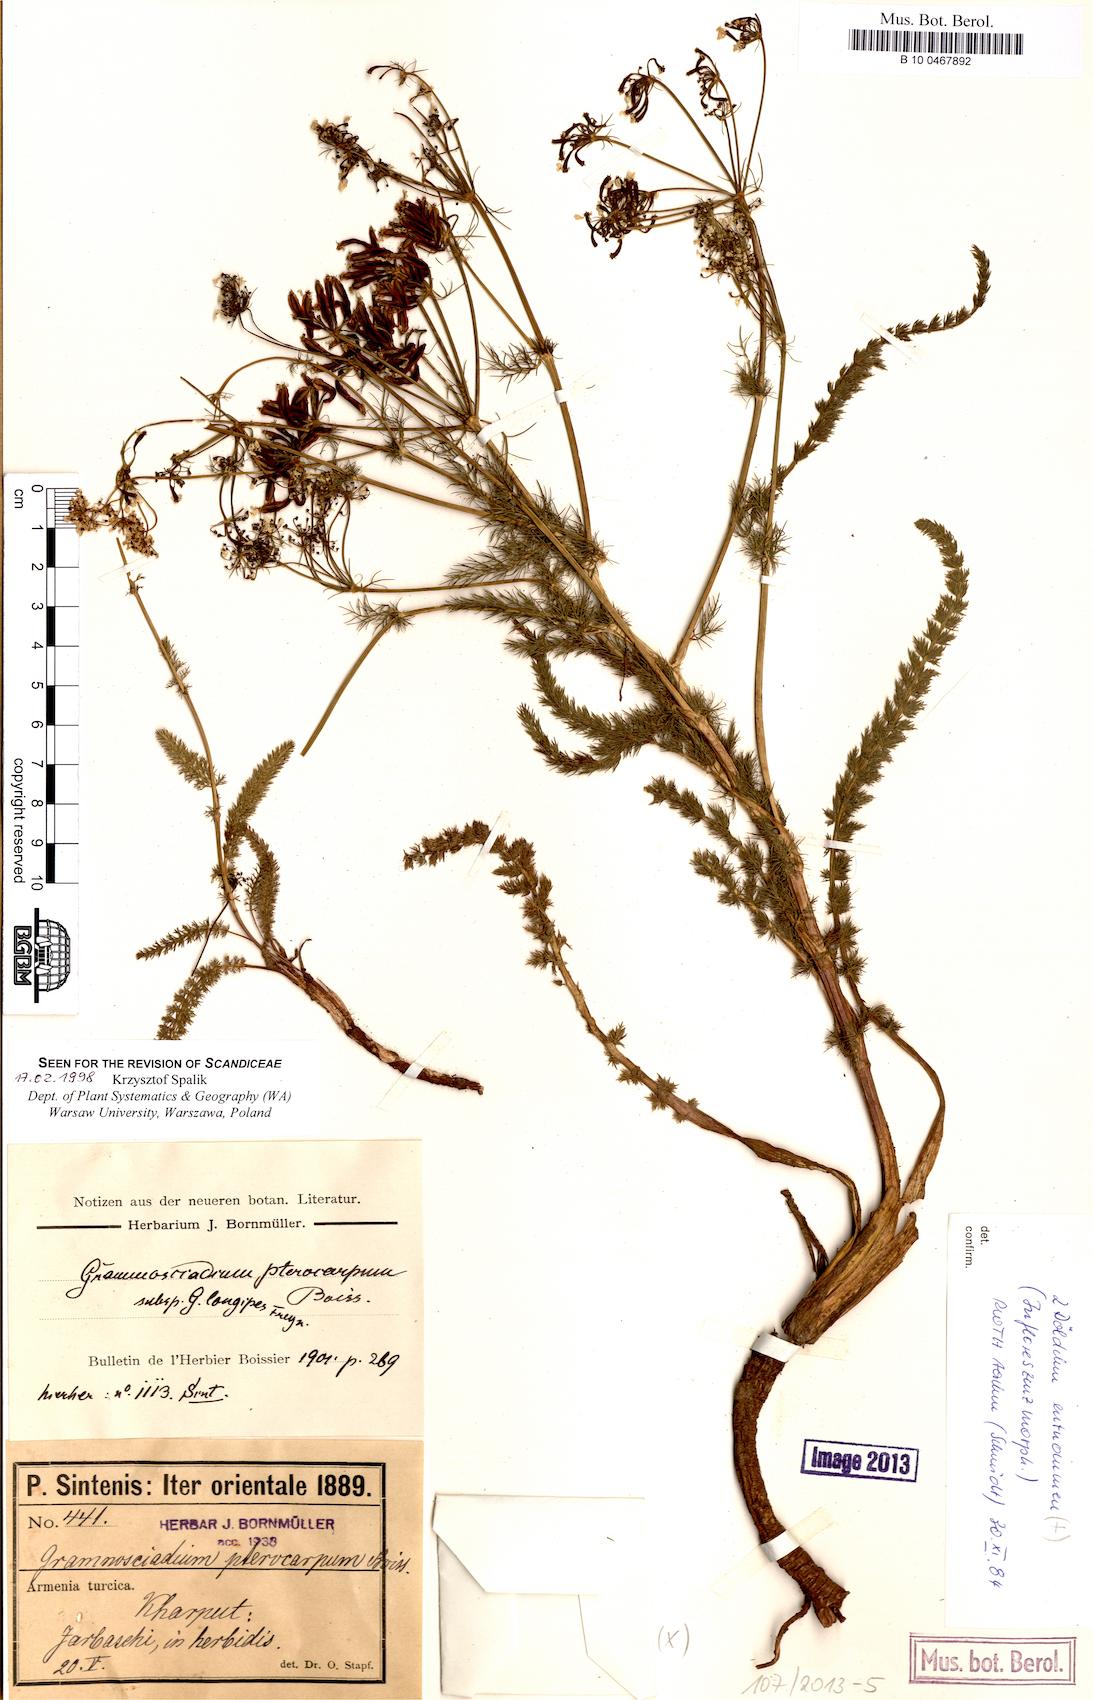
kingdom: Plantae
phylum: Tracheophyta
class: Magnoliopsida
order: Apiales
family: Apiaceae
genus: Caropodium
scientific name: Caropodium pterocarpum
